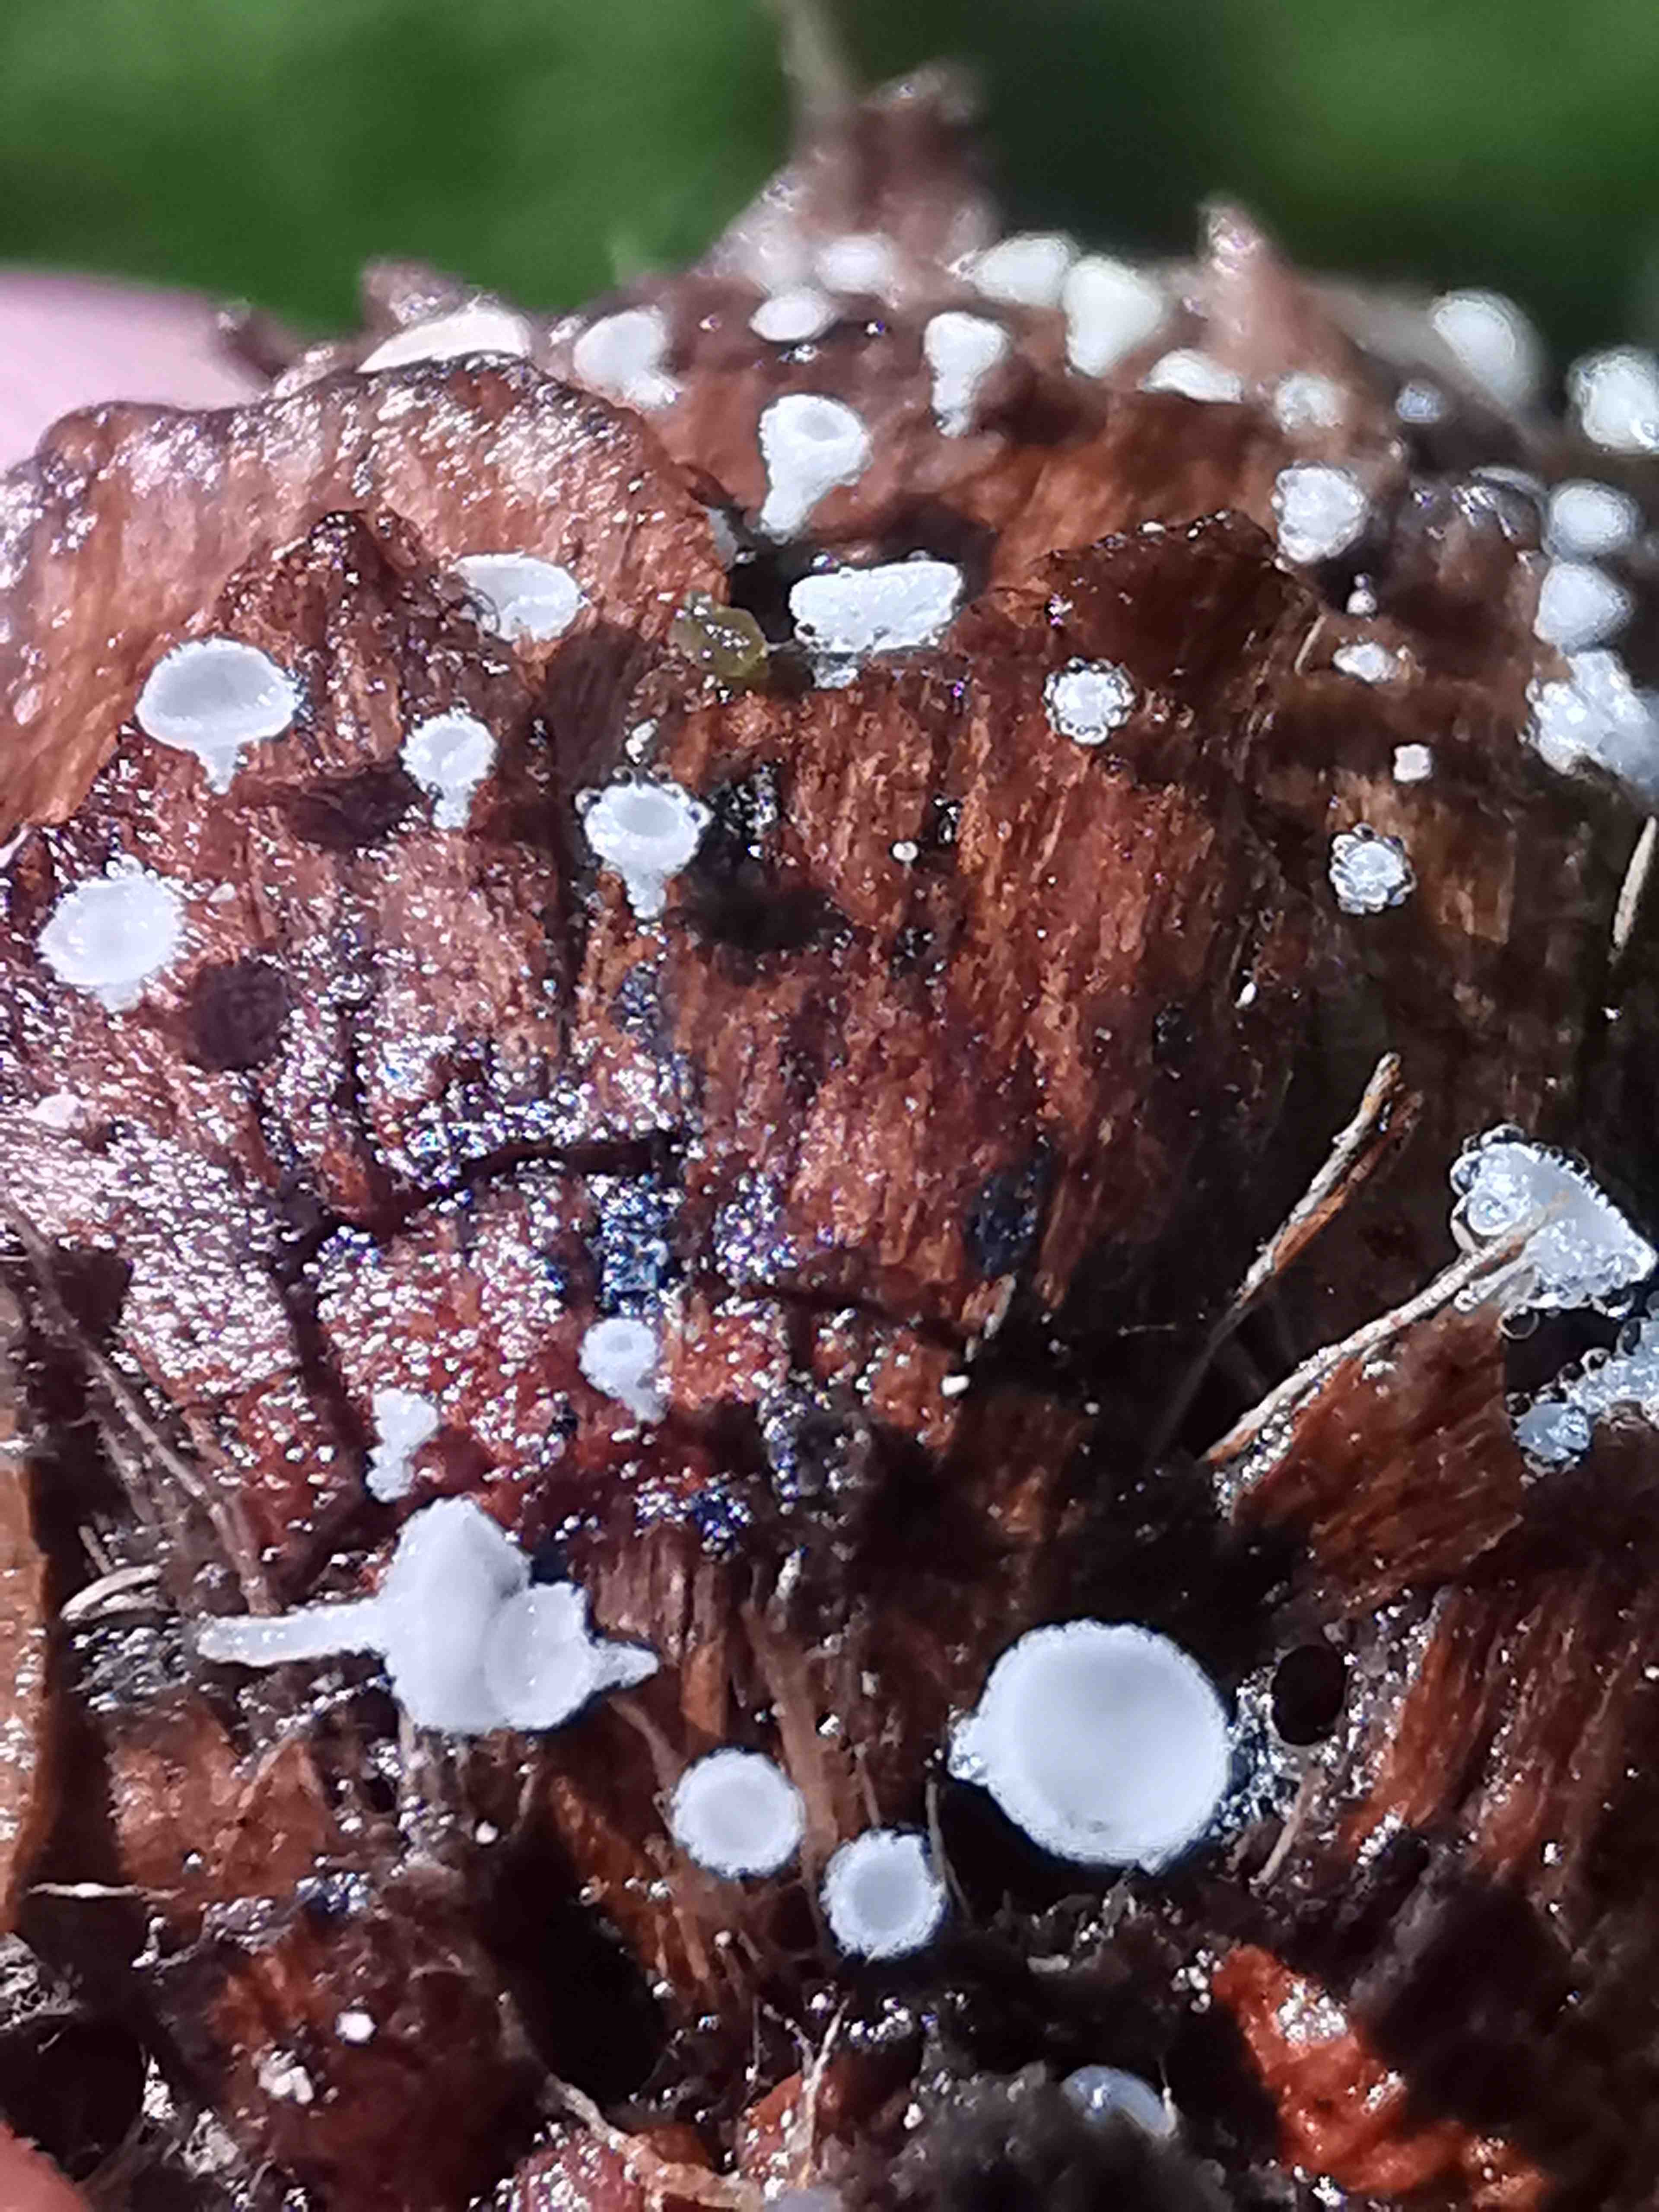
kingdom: Fungi
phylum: Ascomycota
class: Leotiomycetes
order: Helotiales
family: Lachnaceae
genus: Lachnum
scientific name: Lachnum virgineum
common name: jomfru-frynseskive
